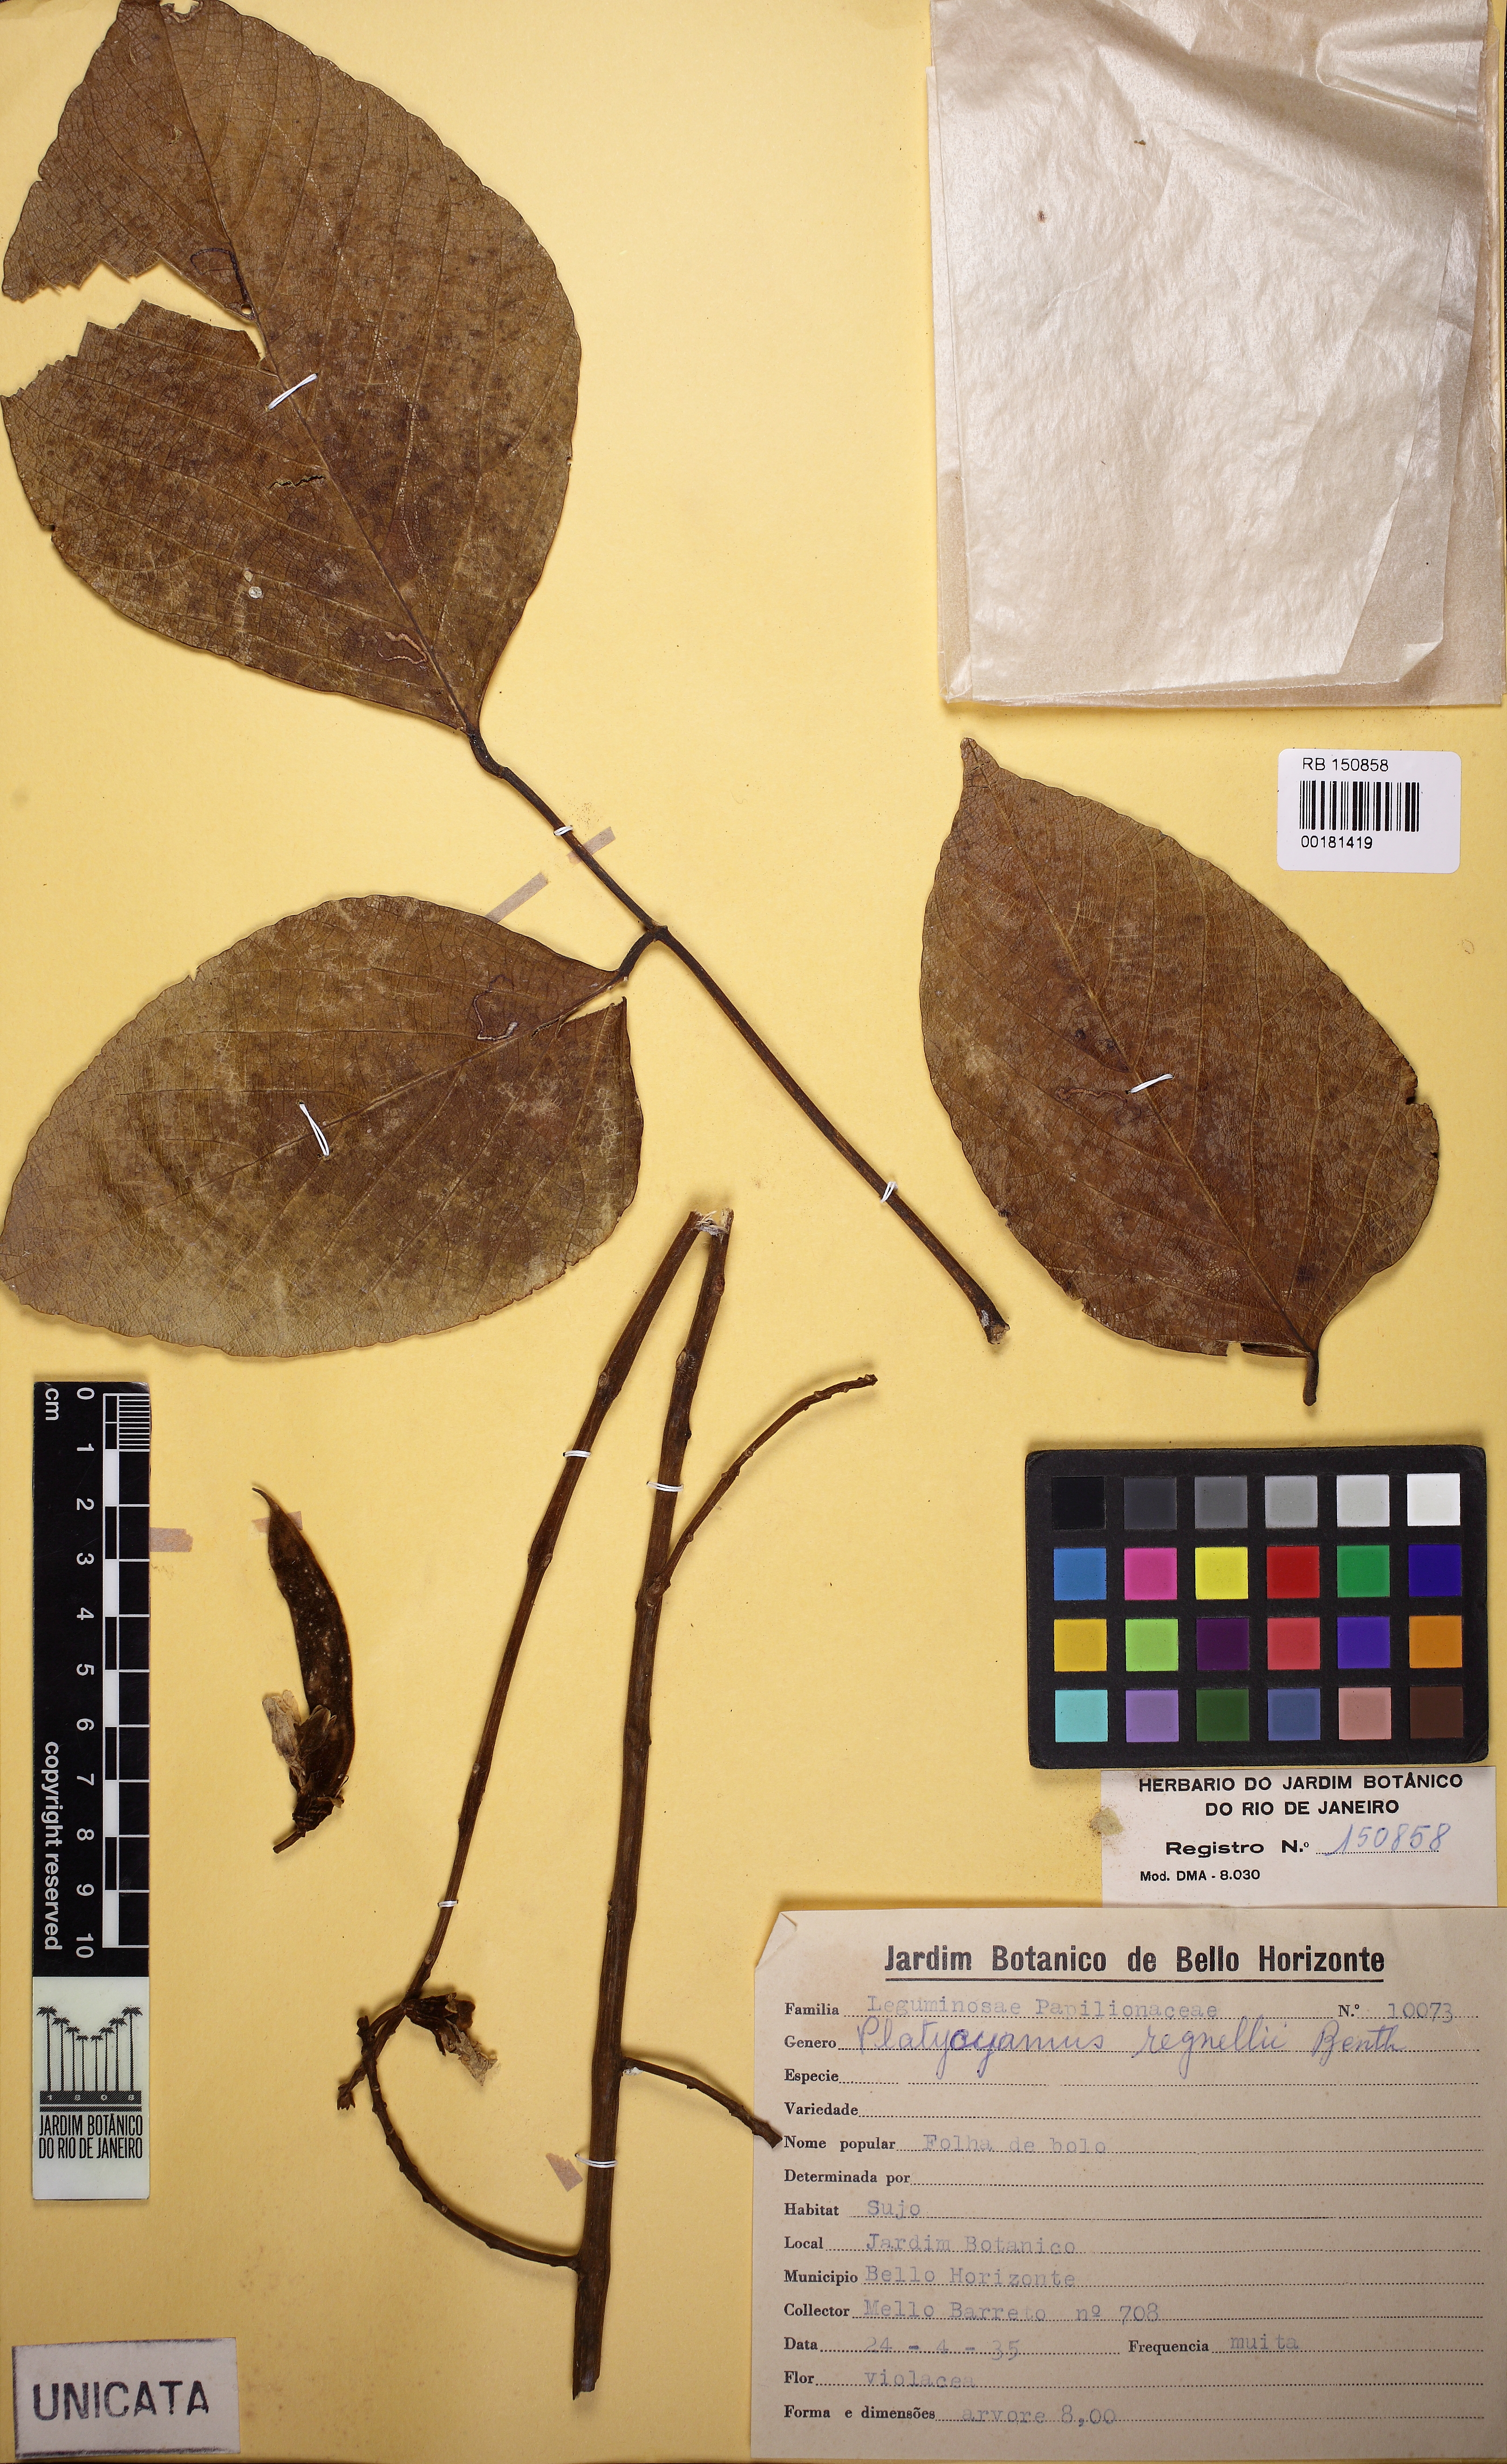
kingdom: Plantae
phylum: Tracheophyta
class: Magnoliopsida
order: Fabales
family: Fabaceae
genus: Platycyamus
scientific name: Platycyamus regnellii
